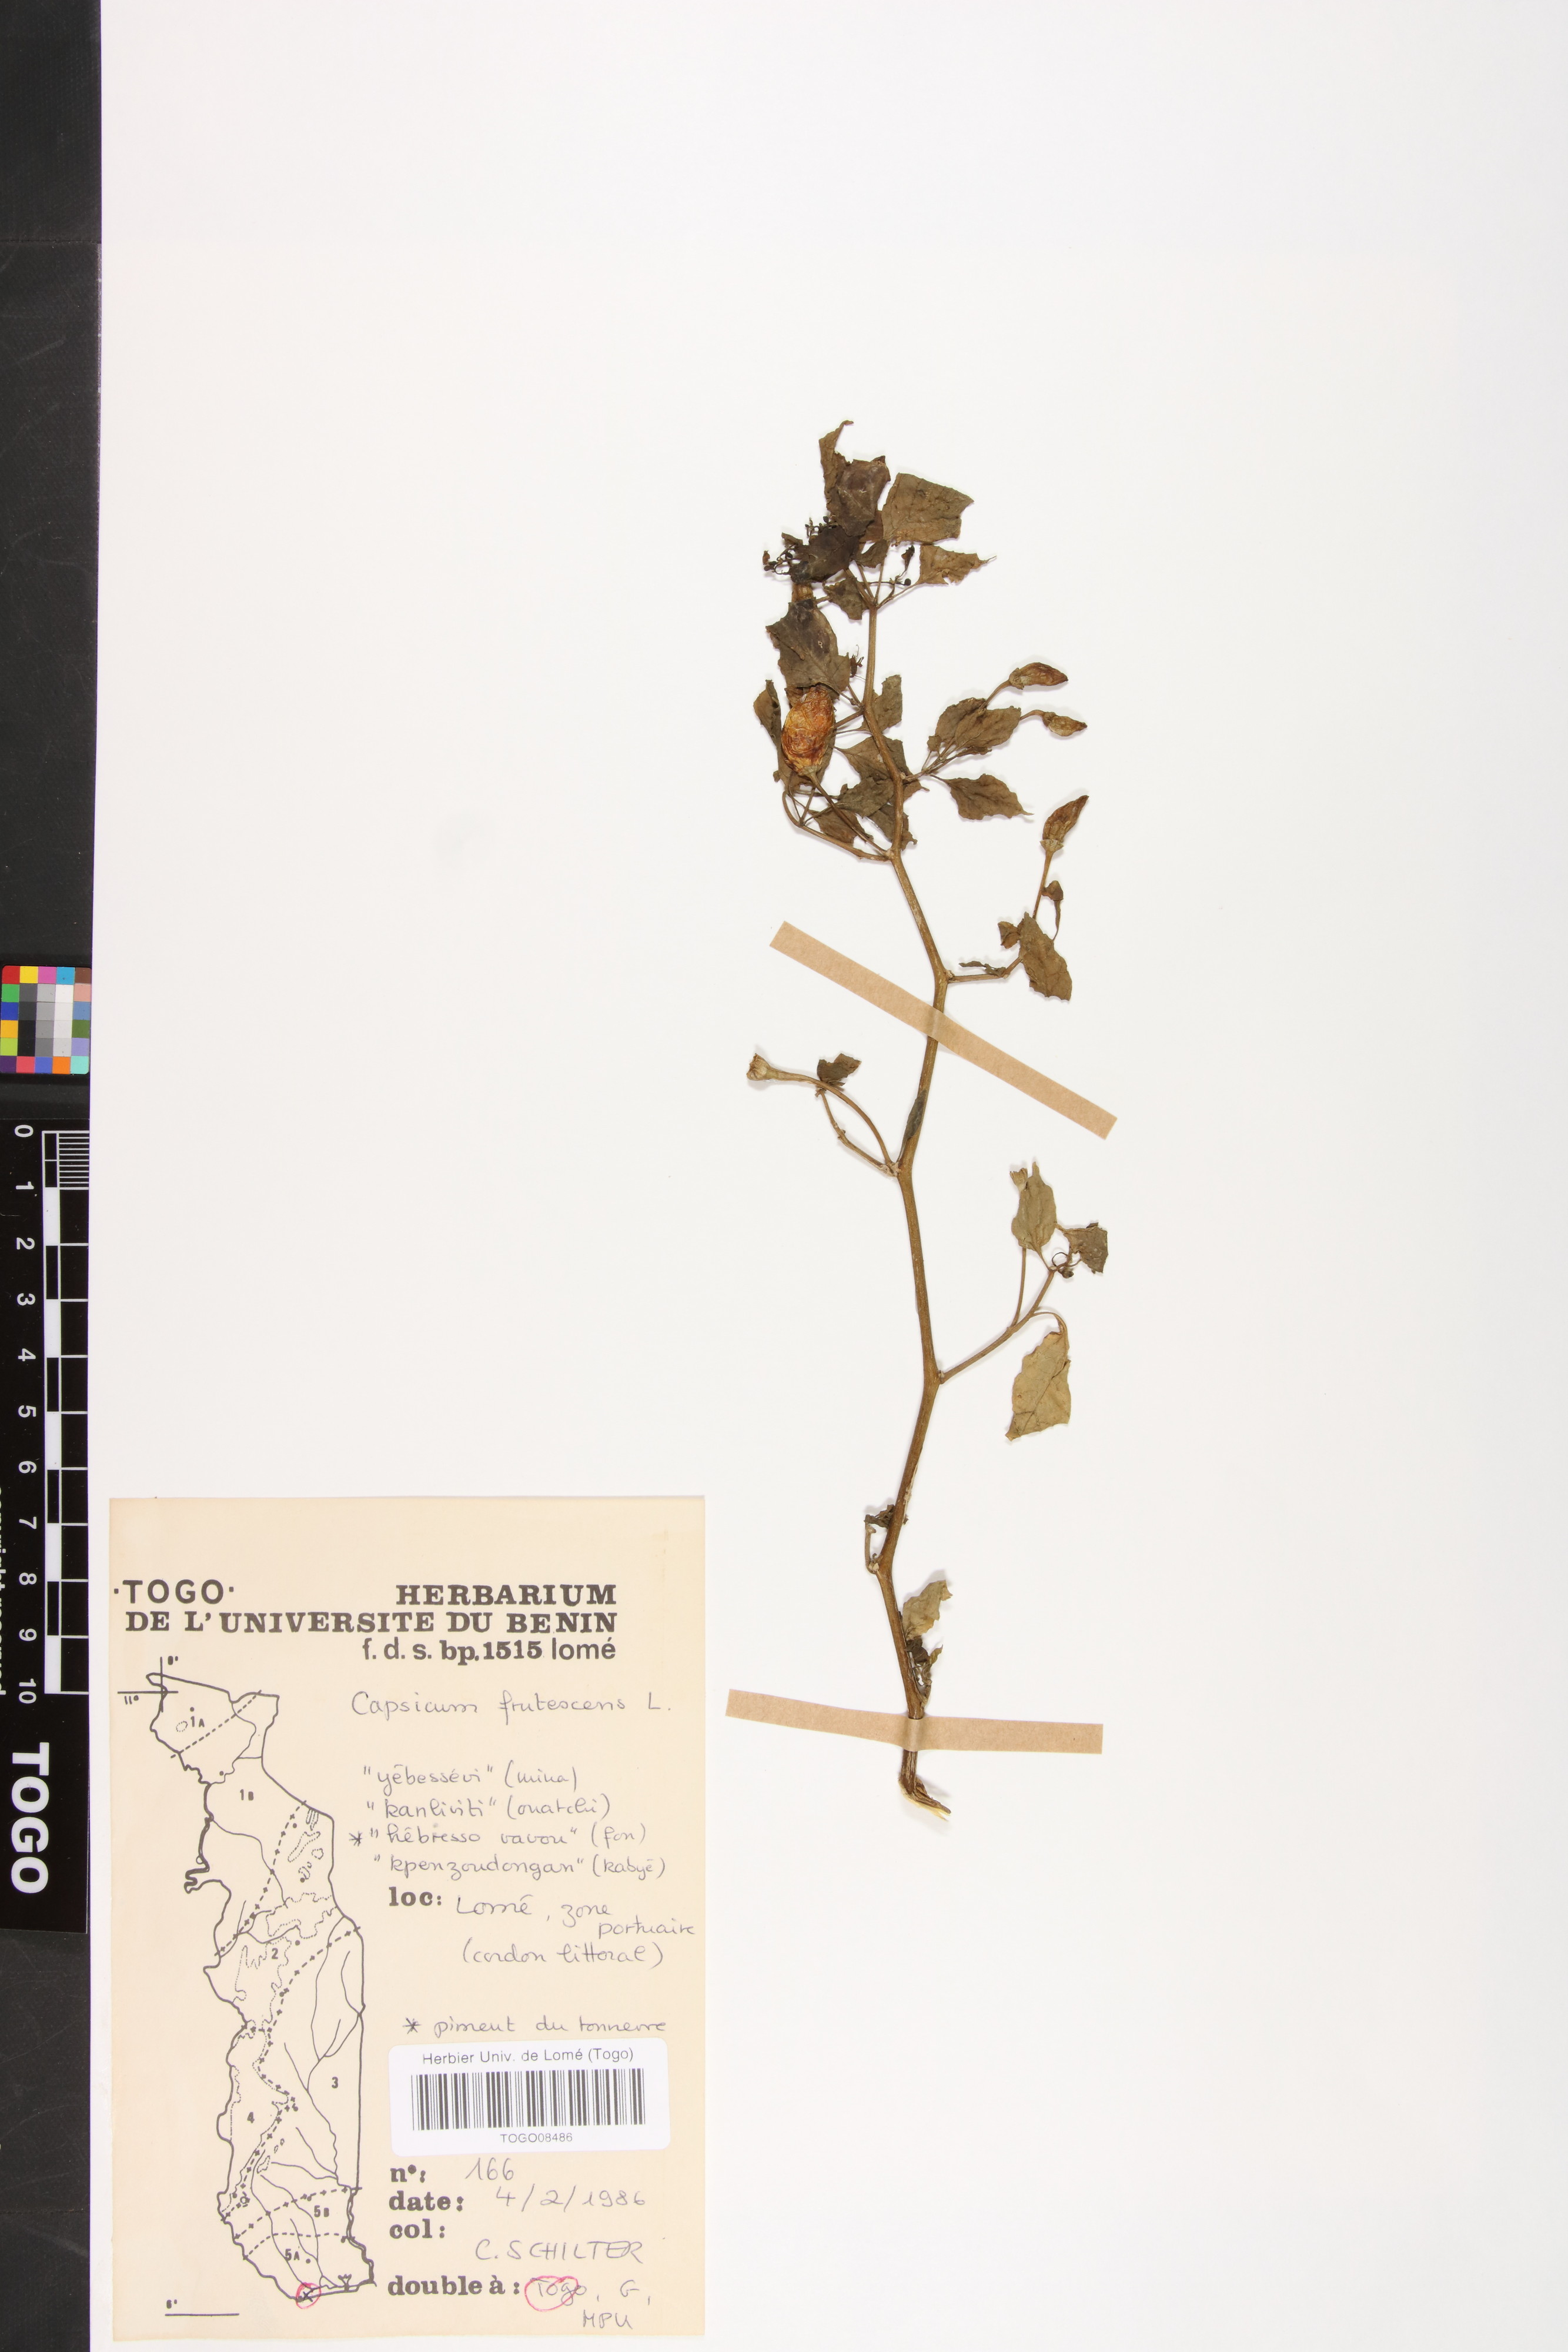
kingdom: Plantae
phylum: Tracheophyta
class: Magnoliopsida
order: Solanales
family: Solanaceae
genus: Capsicum
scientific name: Capsicum frutescens
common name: Bird pepper
